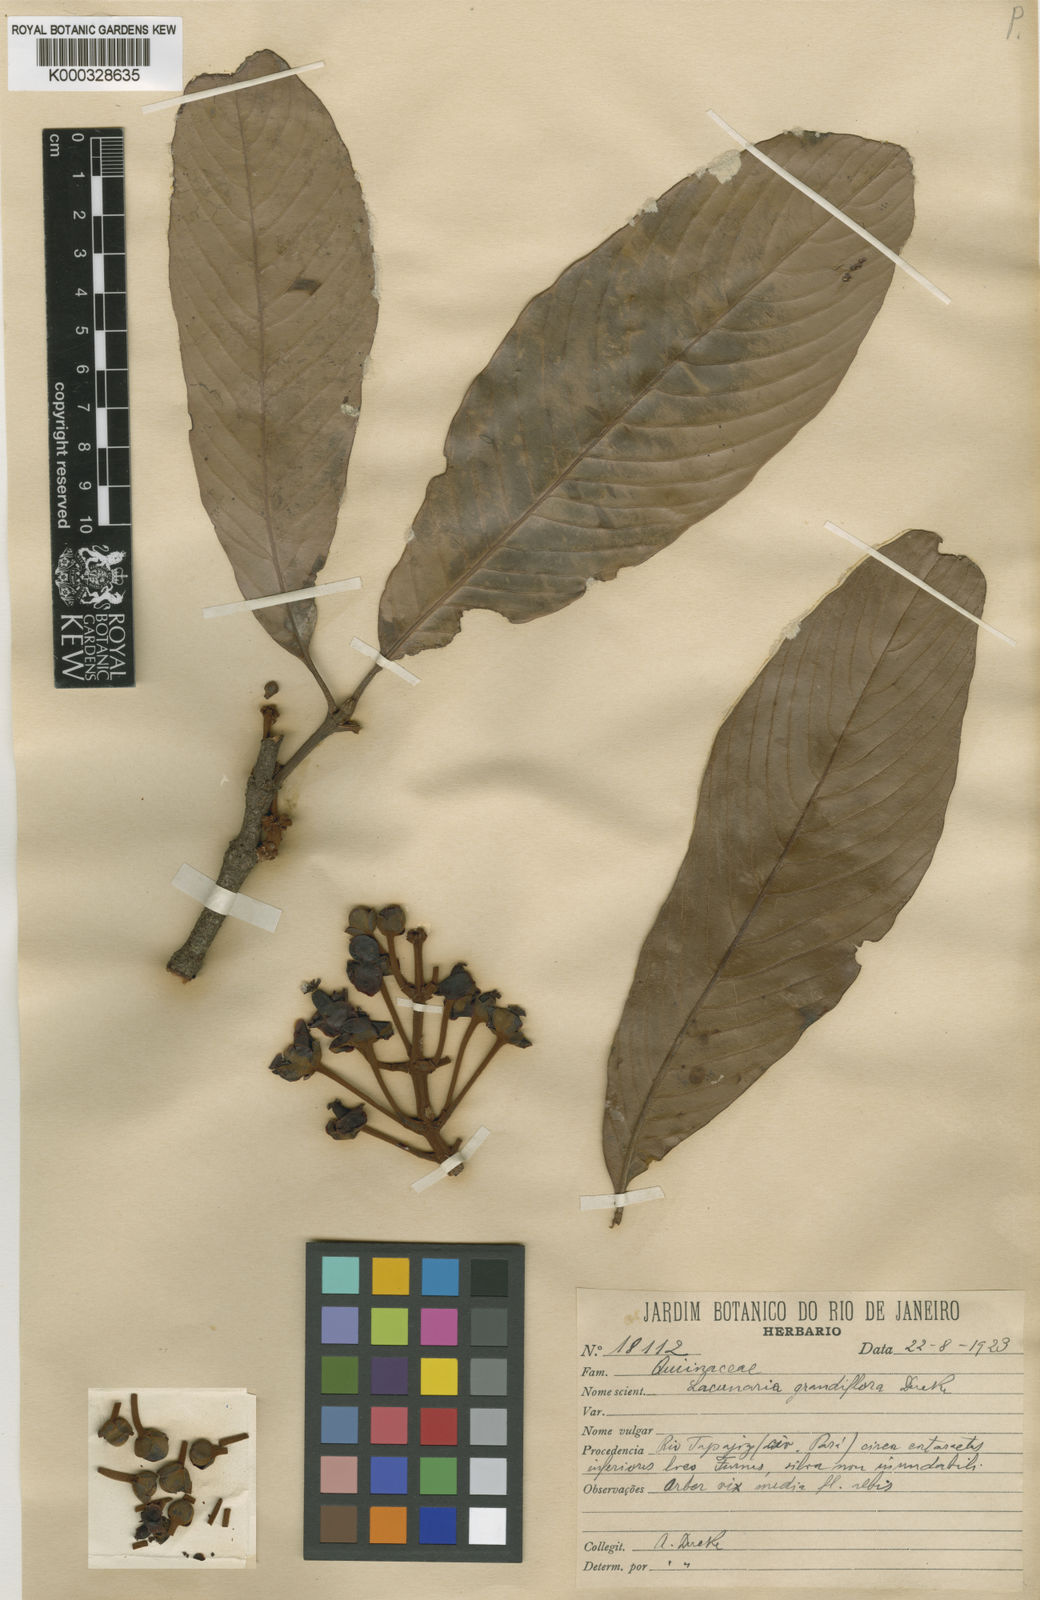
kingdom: Plantae
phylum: Tracheophyta
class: Magnoliopsida
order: Malpighiales
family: Quiinaceae
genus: Lacunaria
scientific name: Lacunaria jenmanii
